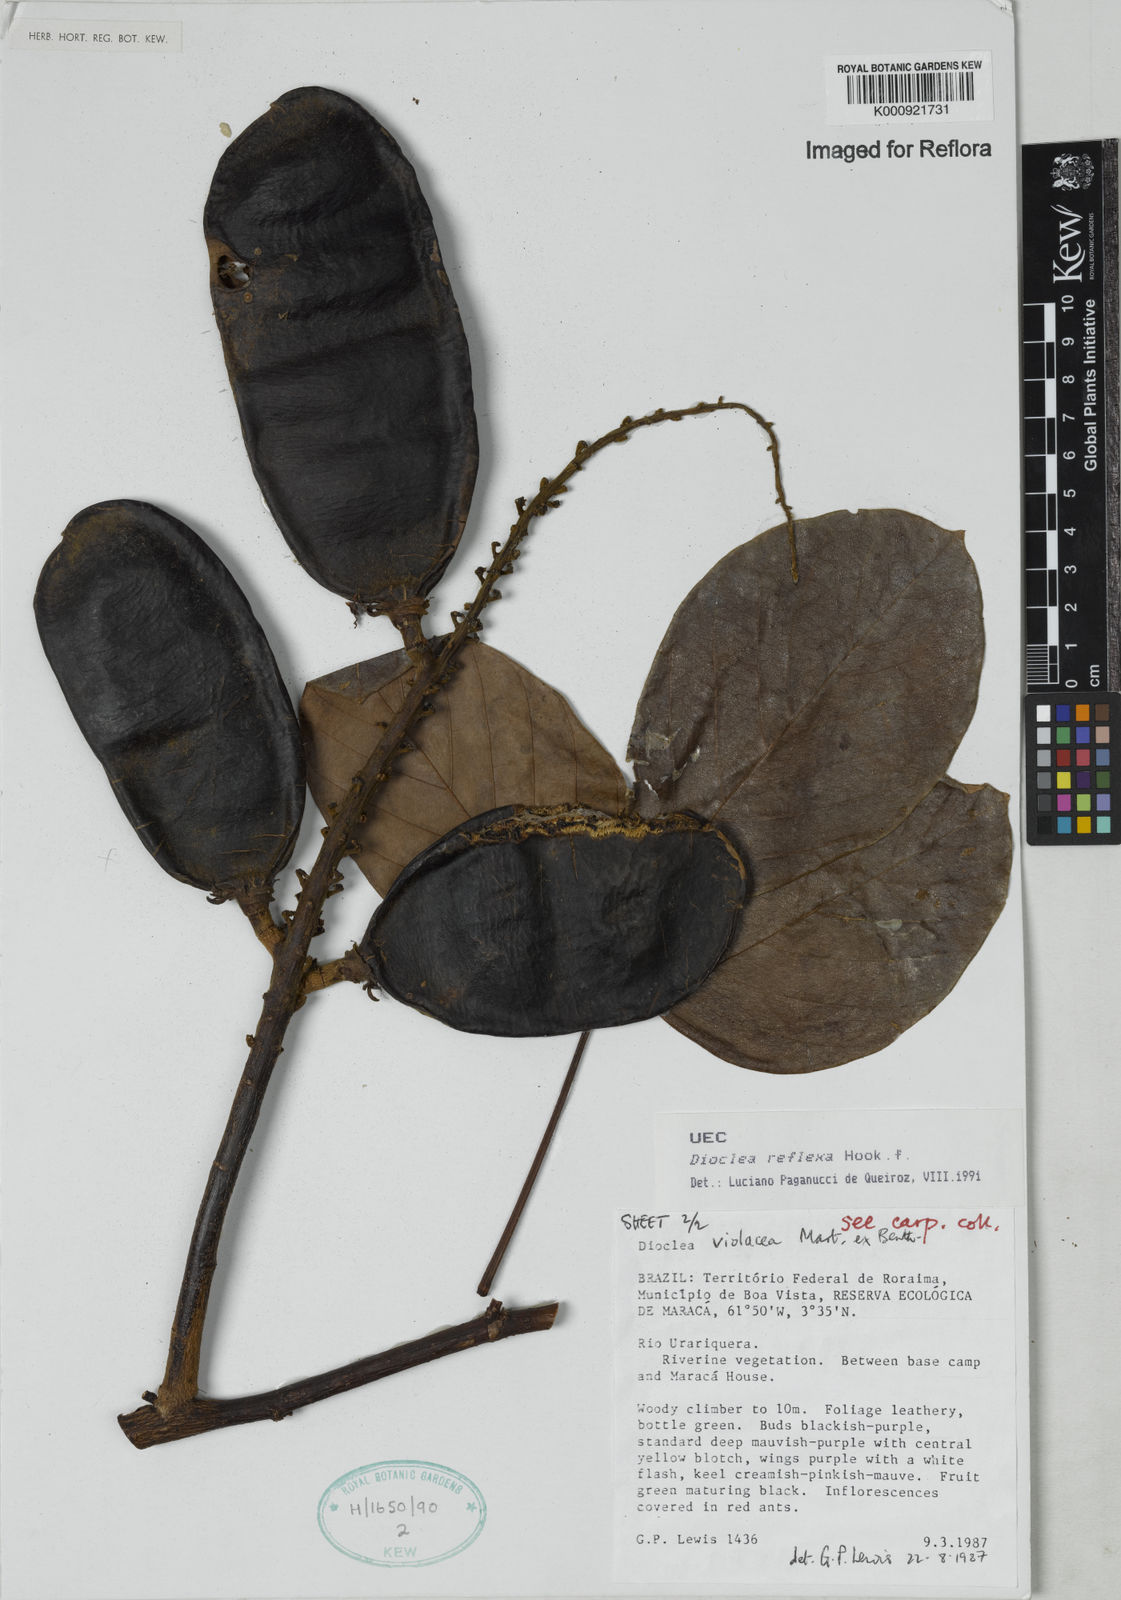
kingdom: Plantae
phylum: Tracheophyta
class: Magnoliopsida
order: Fabales
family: Fabaceae
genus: Macropsychanthus
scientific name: Macropsychanthus comosus
